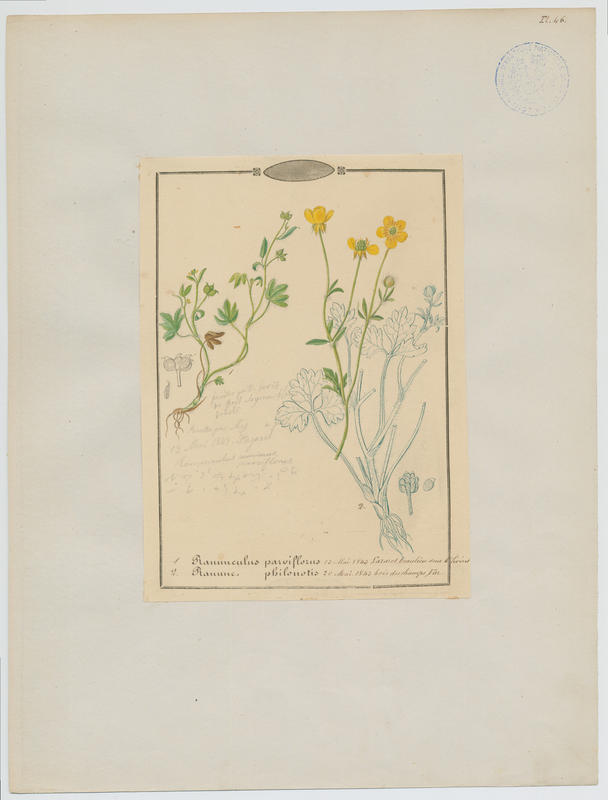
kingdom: Plantae
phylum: Tracheophyta
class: Magnoliopsida
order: Ranunculales
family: Ranunculaceae
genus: Ranunculus
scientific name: Ranunculus sardous
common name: Hairy buttercup
